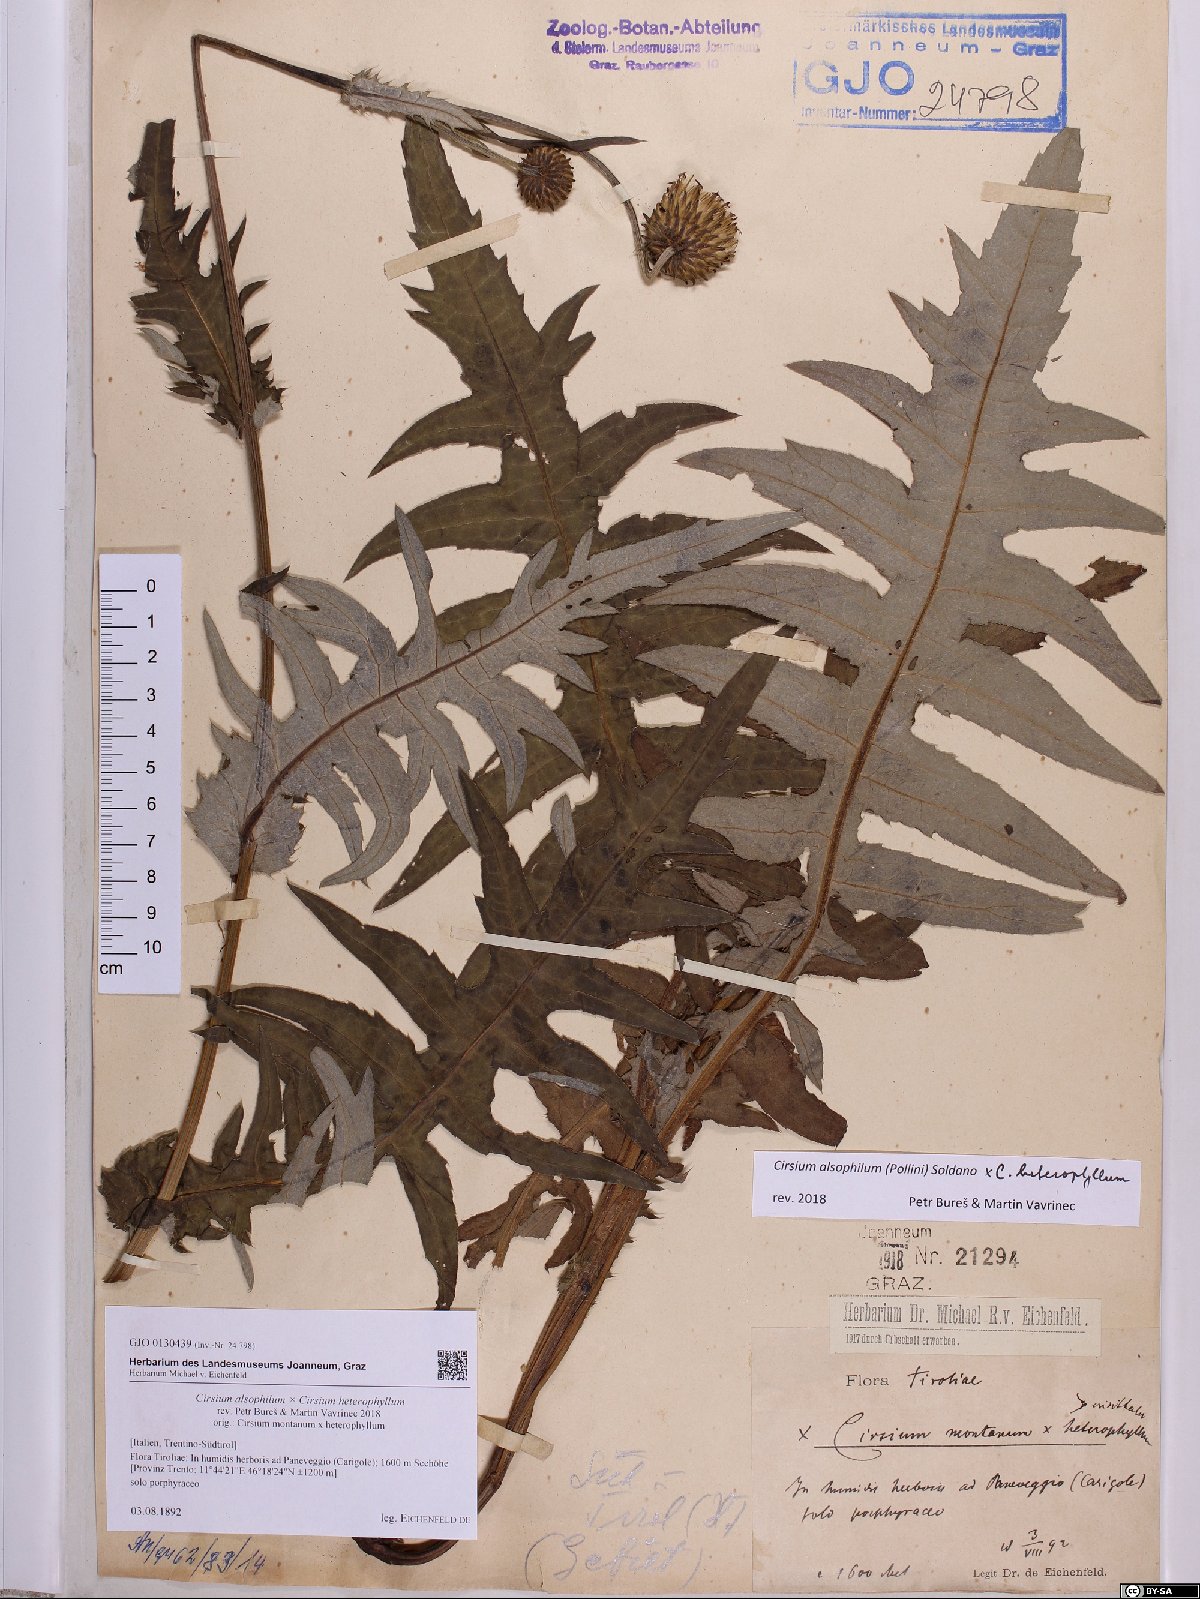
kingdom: Plantae
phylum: Tracheophyta
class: Magnoliopsida
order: Asterales
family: Asteraceae
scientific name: Asteraceae
